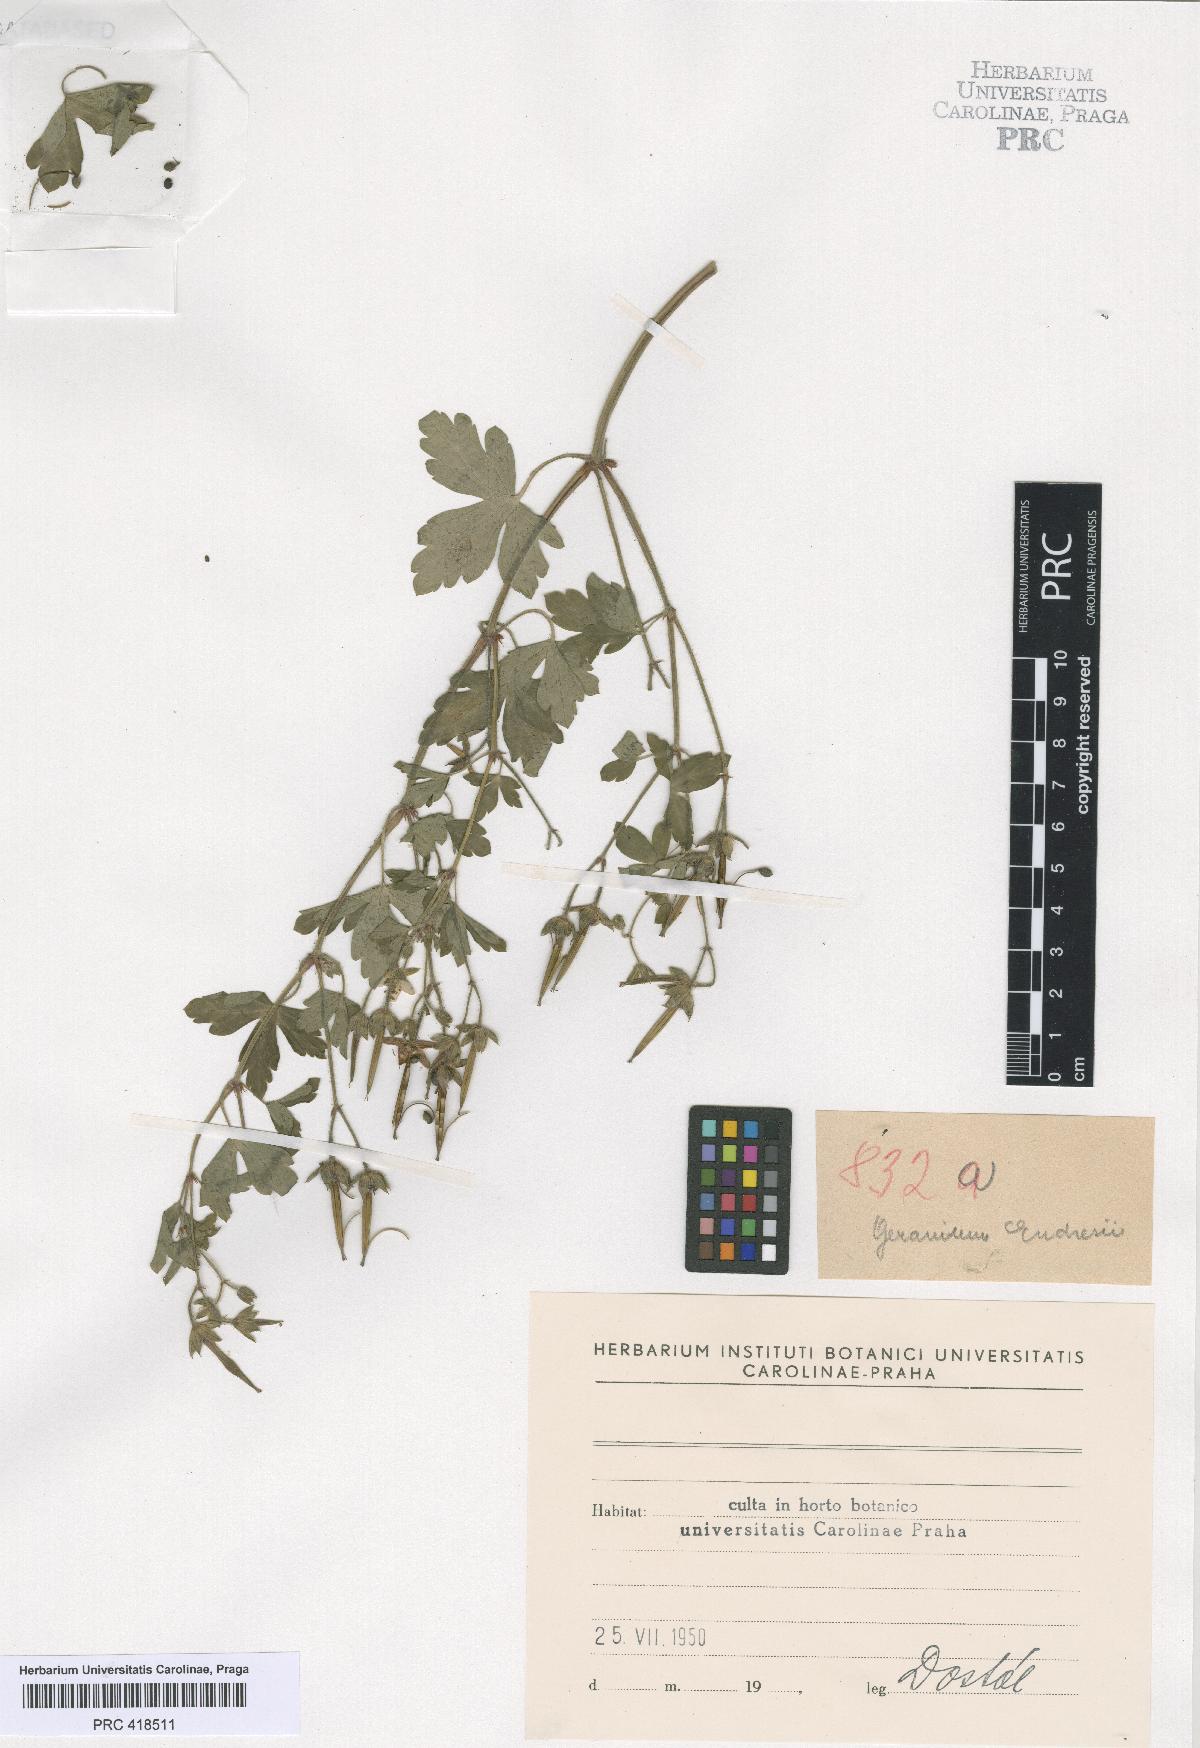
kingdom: Plantae
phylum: Tracheophyta
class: Magnoliopsida
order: Geraniales
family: Geraniaceae
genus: Geranium
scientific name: Geranium thunbergii
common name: Dewdrop crane's-bill
